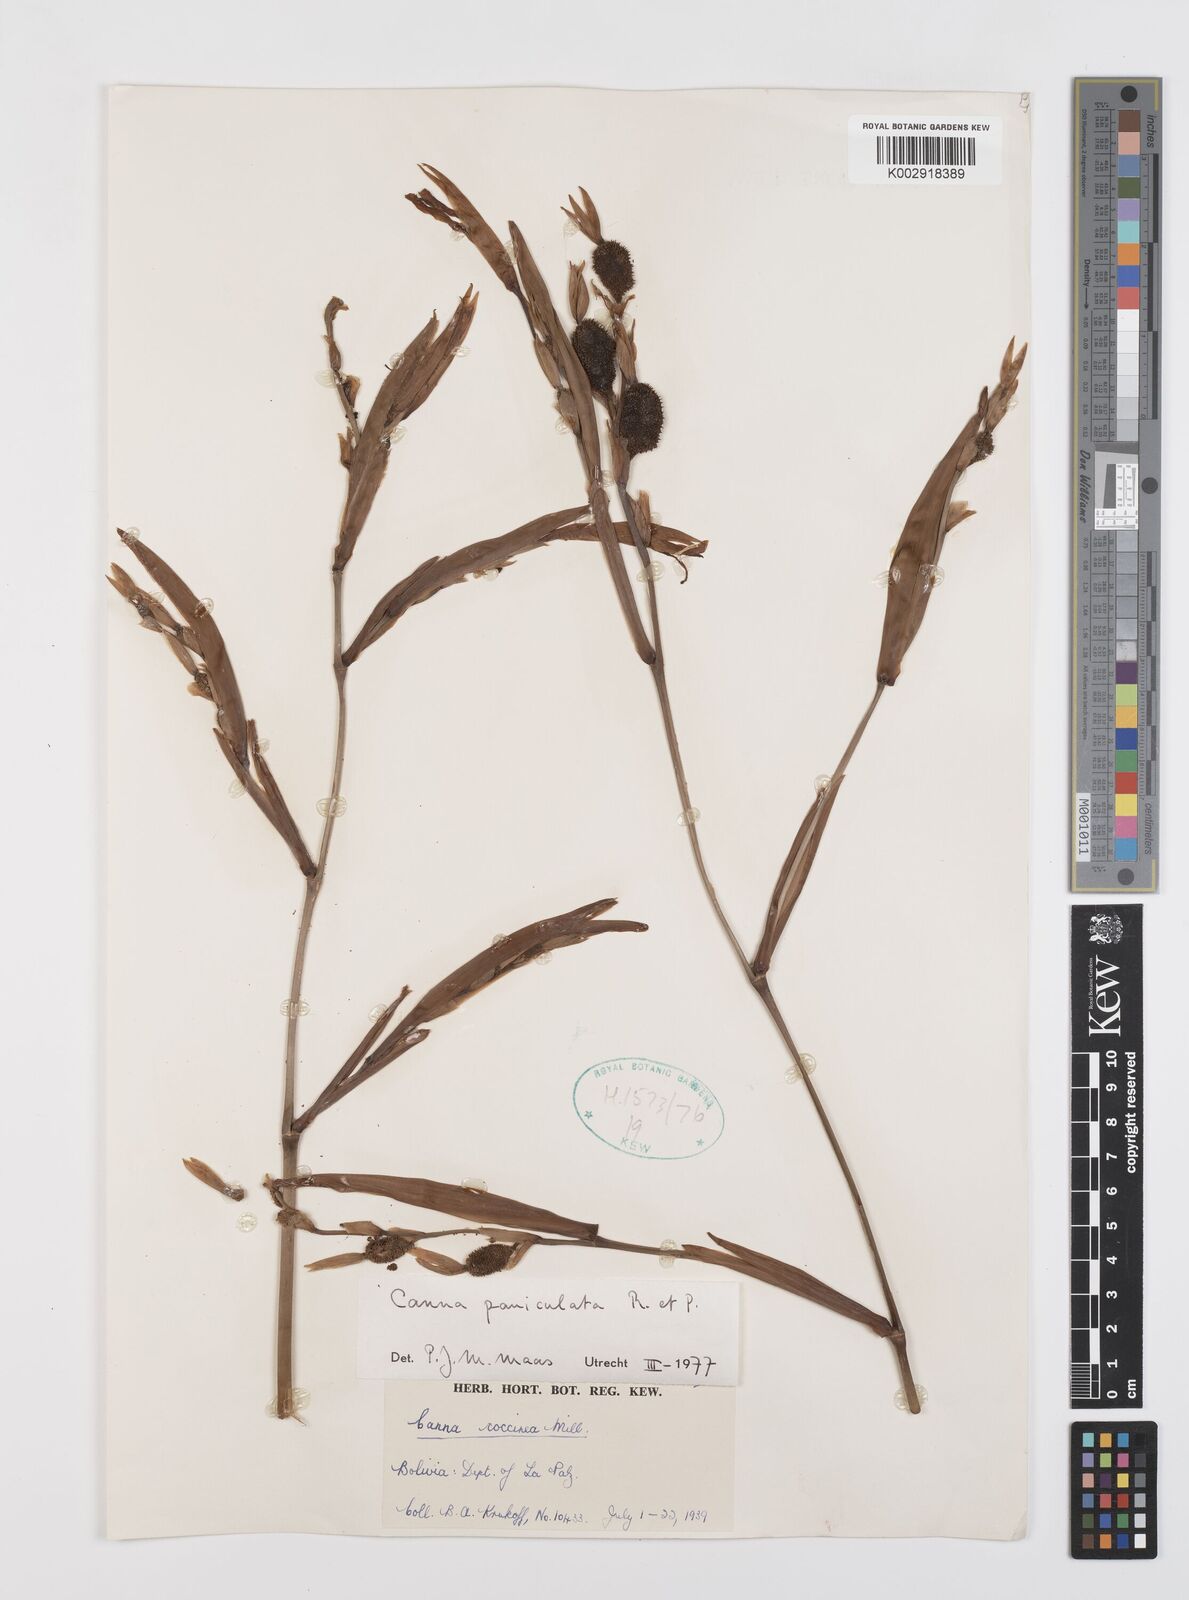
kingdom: Plantae
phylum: Tracheophyta
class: Liliopsida
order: Zingiberales
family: Cannaceae
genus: Canna
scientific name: Canna paniculata
